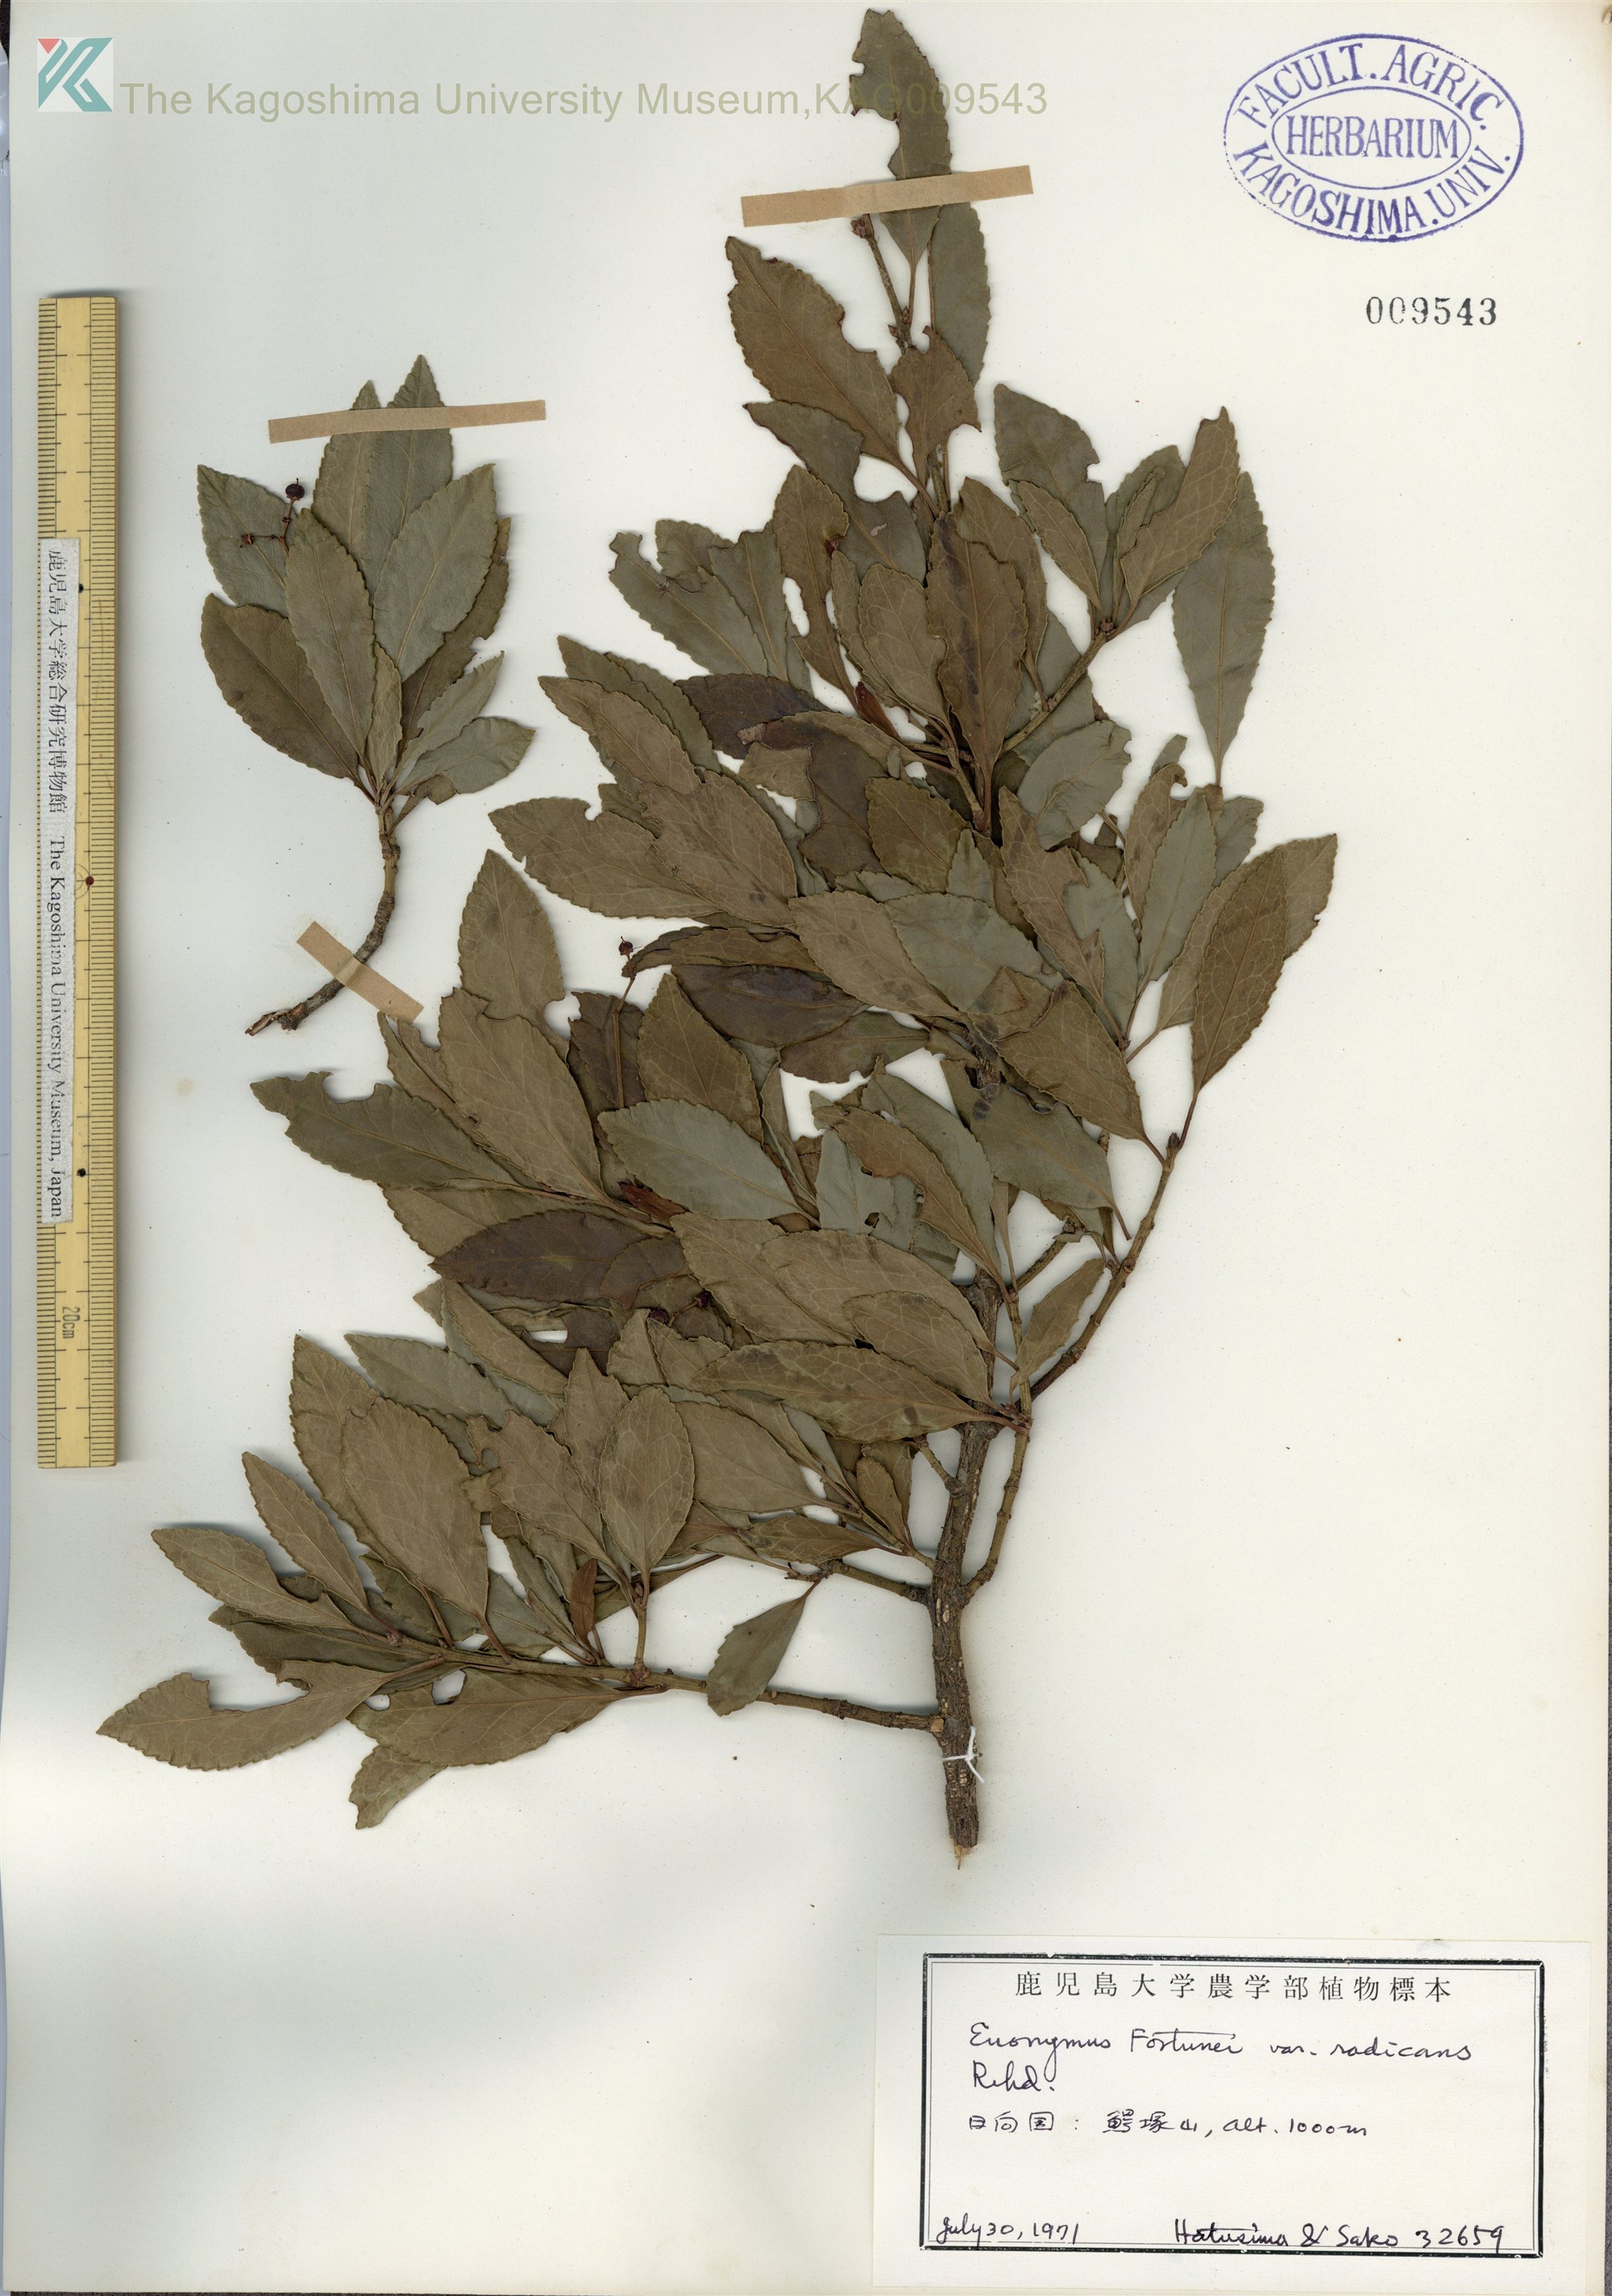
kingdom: Plantae
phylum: Tracheophyta
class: Magnoliopsida
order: Celastrales
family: Celastraceae
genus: Euonymus
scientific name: Euonymus fortunei
